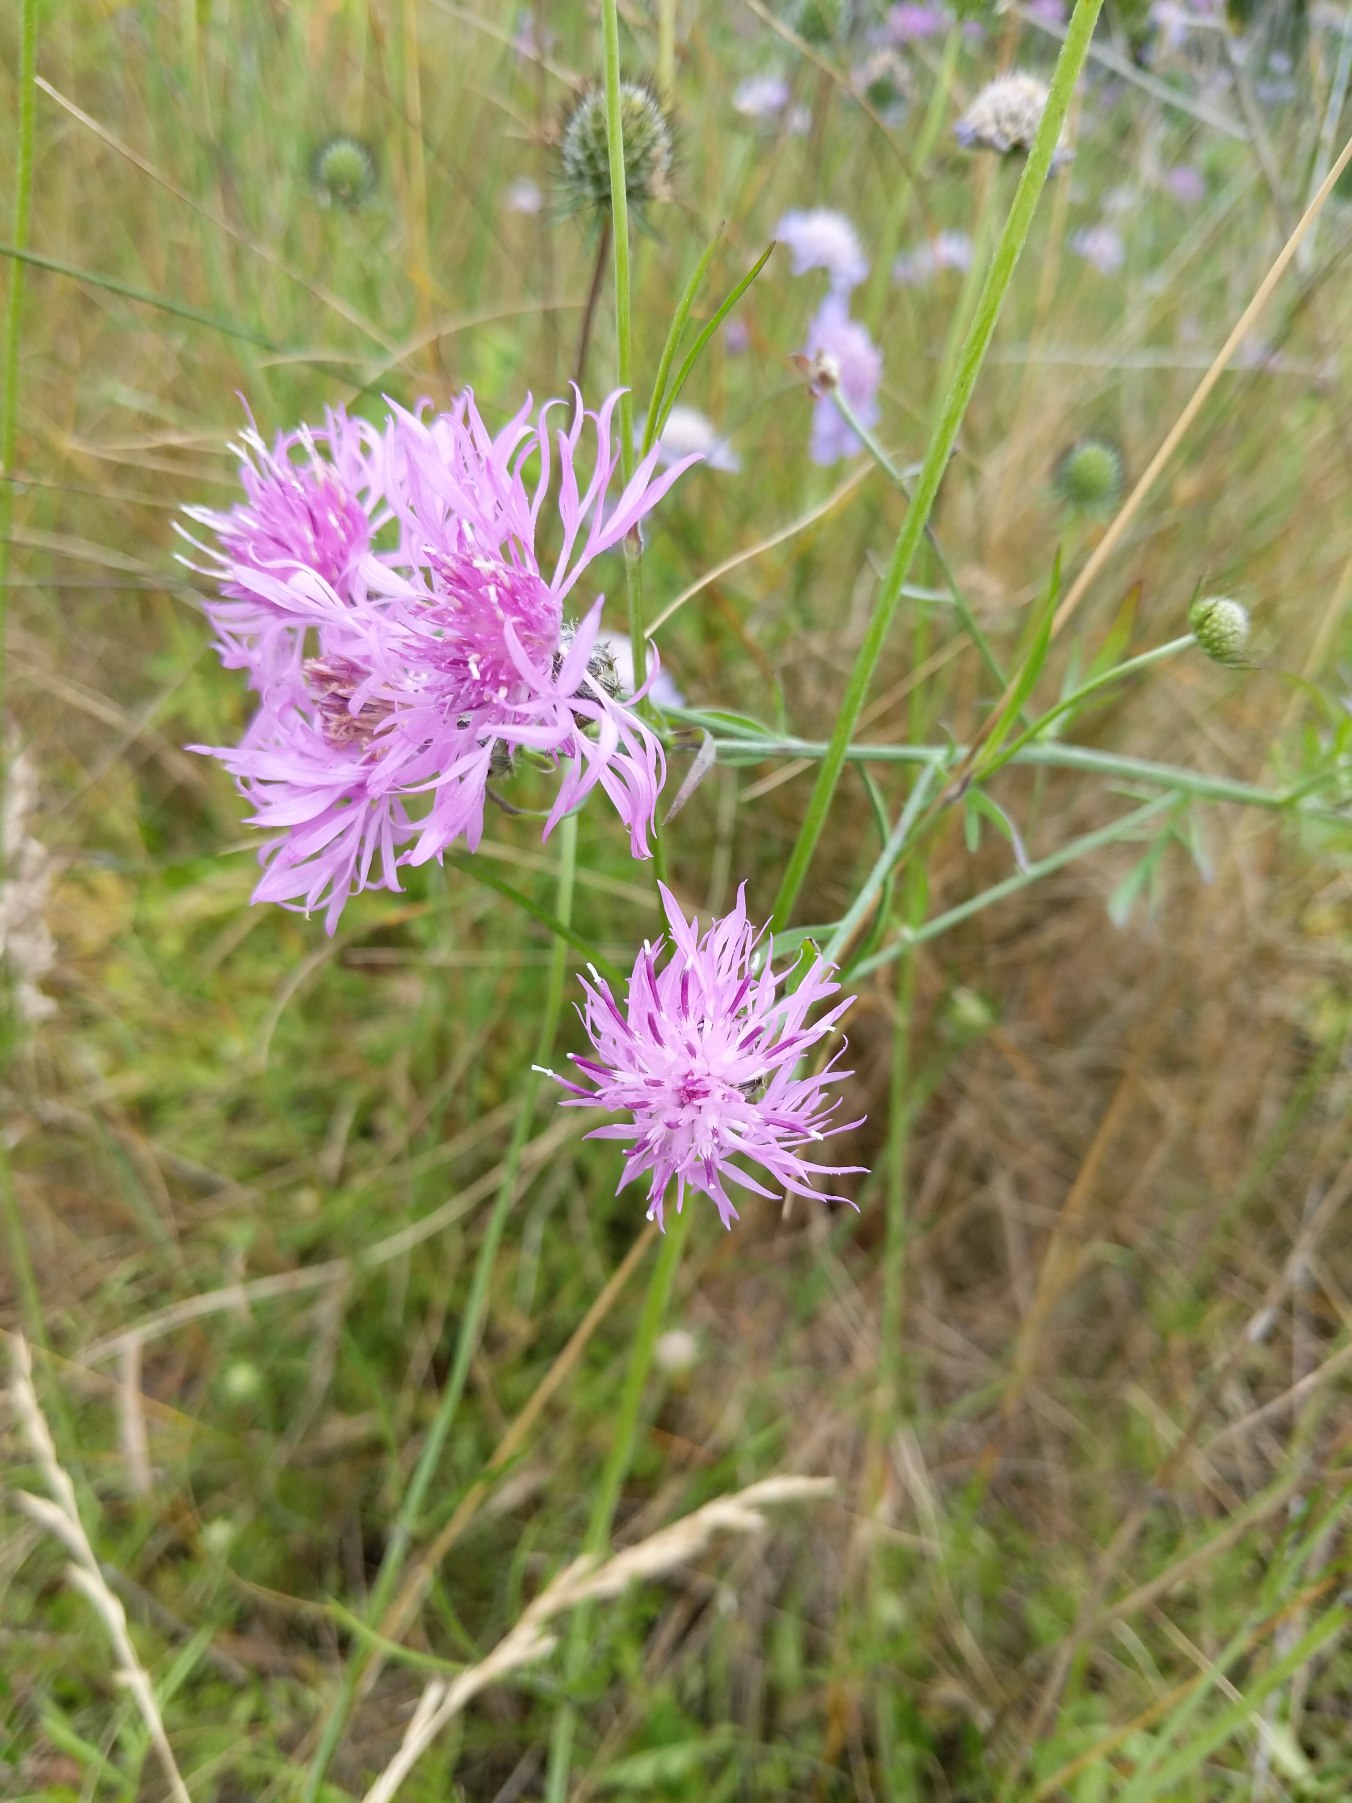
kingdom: Plantae
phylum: Tracheophyta
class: Magnoliopsida
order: Asterales
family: Asteraceae
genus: Centaurea
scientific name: Centaurea stoebe
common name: Mangegrenet knopurt
